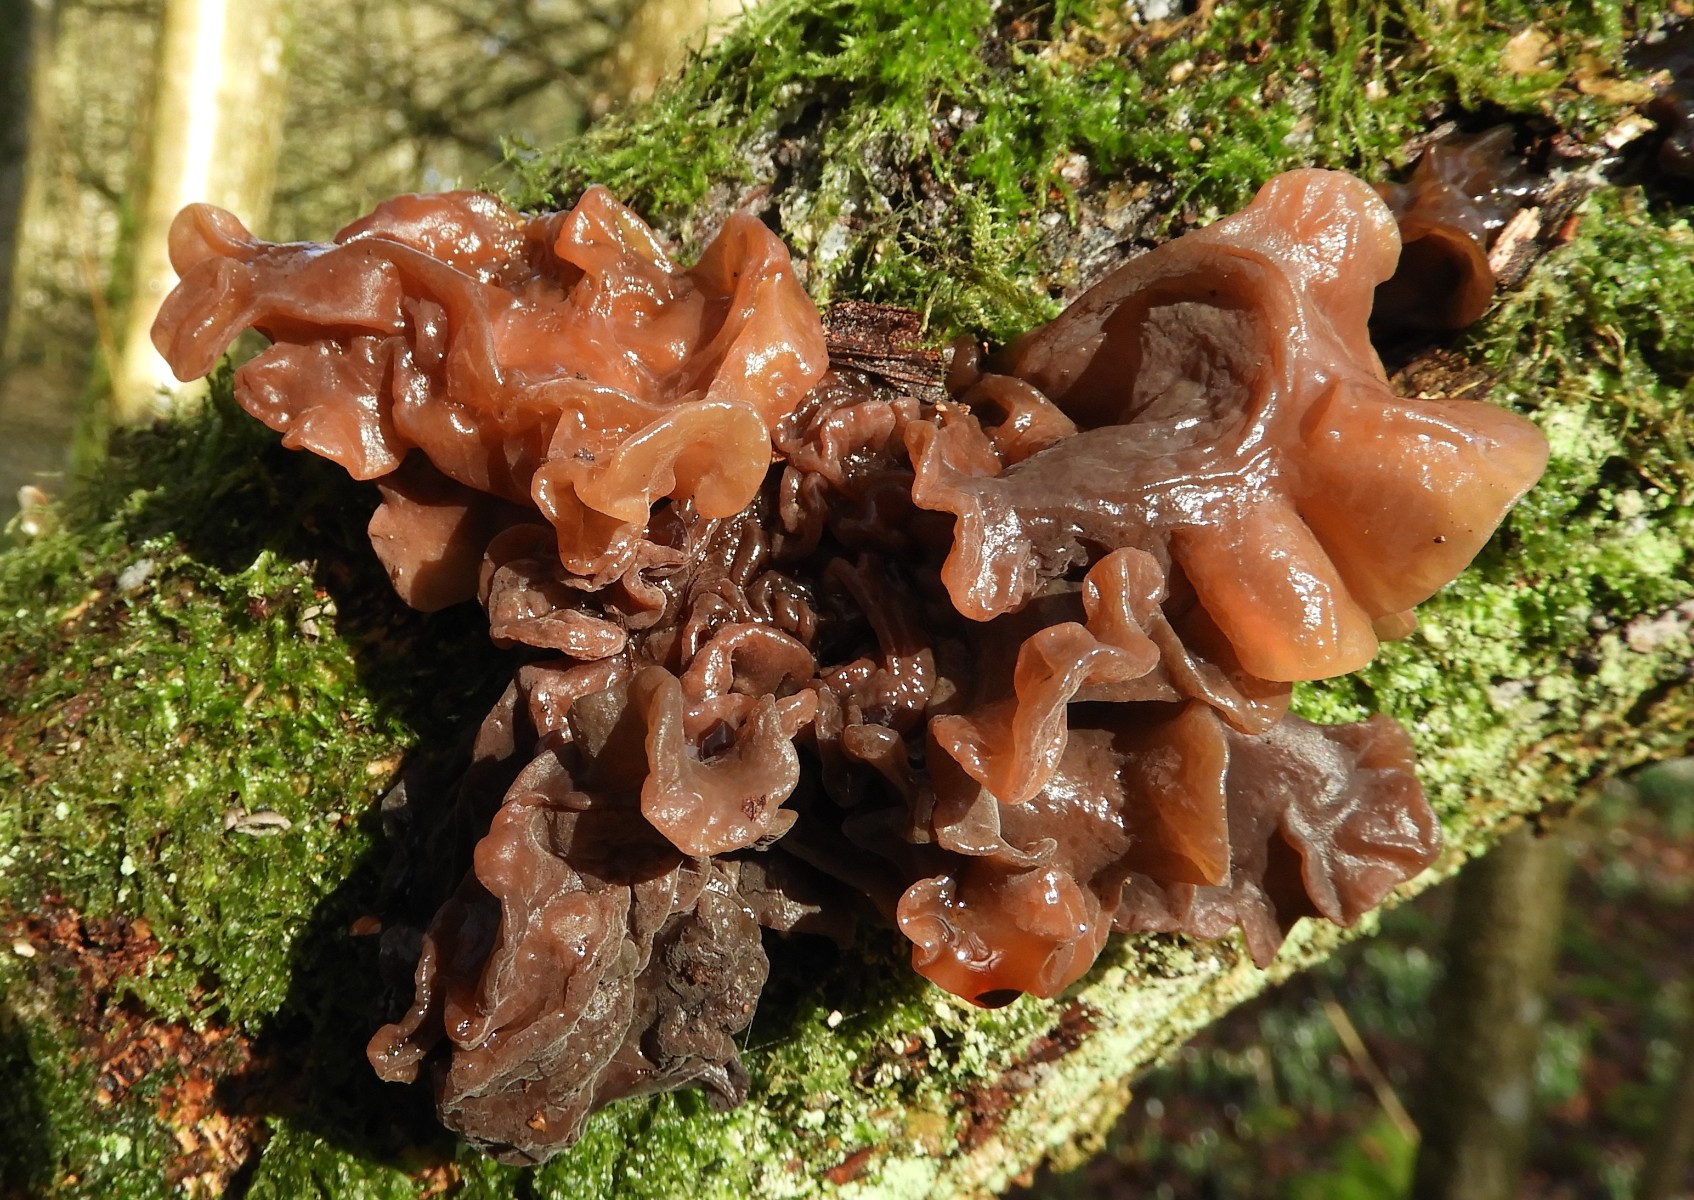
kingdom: Fungi
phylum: Basidiomycota
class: Tremellomycetes
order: Tremellales
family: Tremellaceae
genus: Phaeotremella
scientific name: Phaeotremella frondosa
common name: kæmpe-bævresvamp
